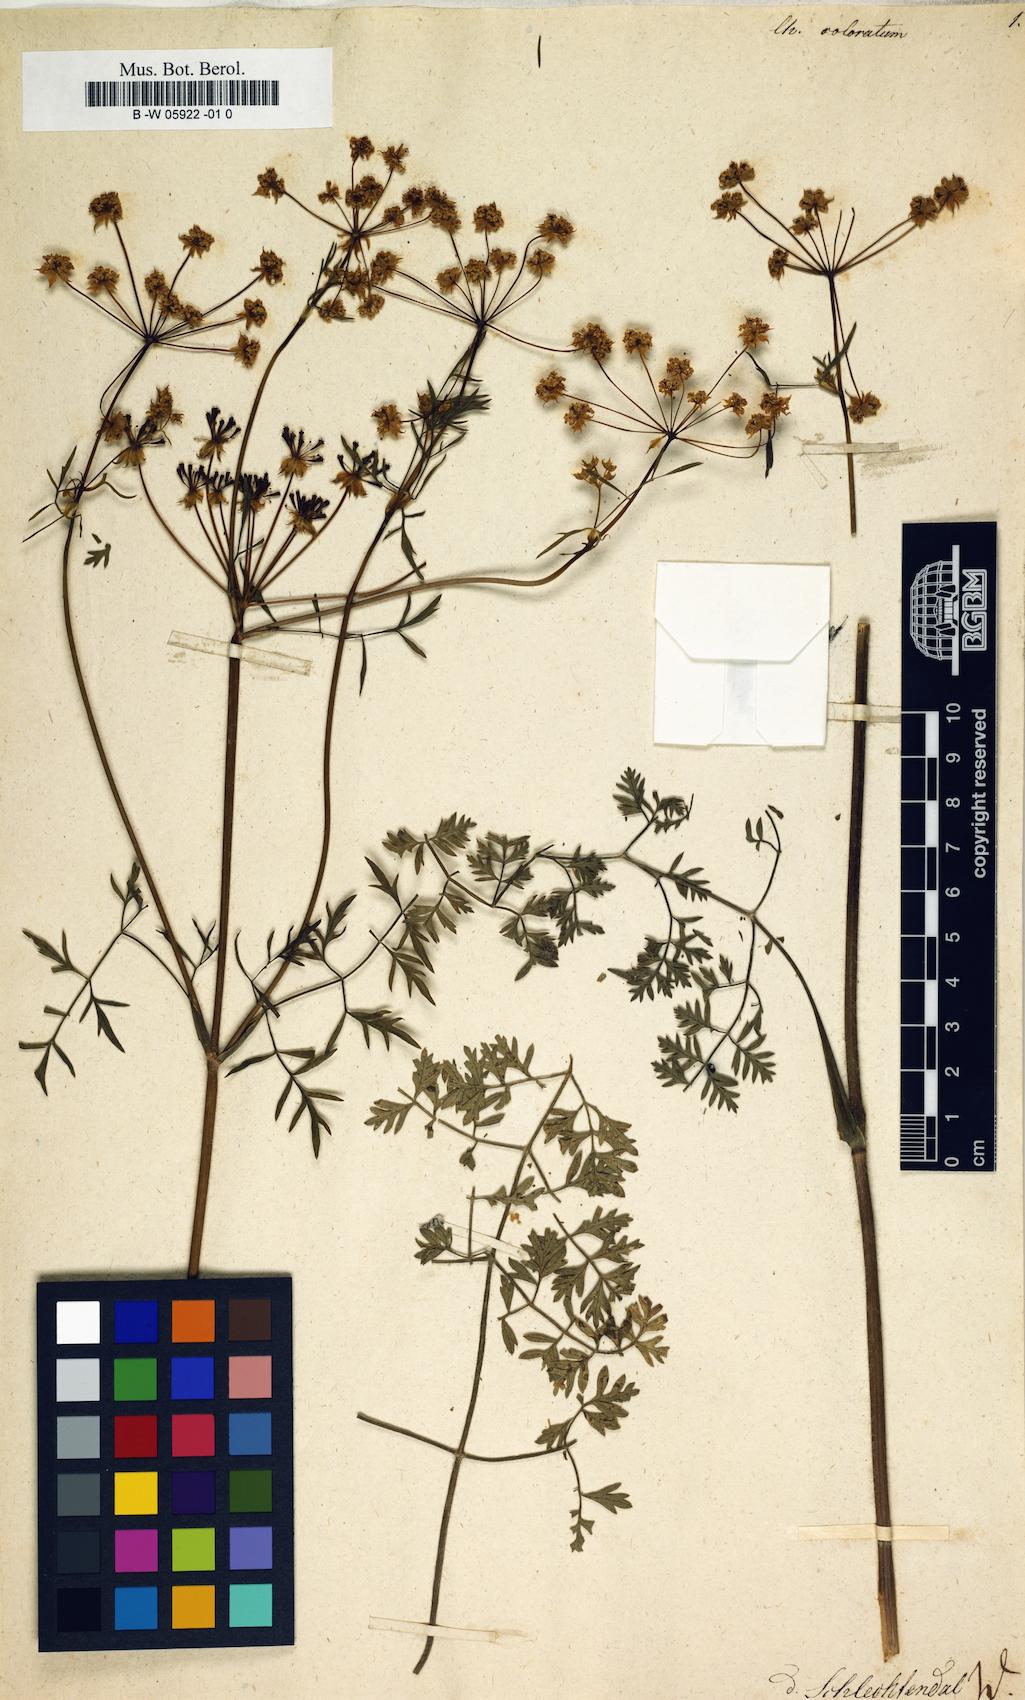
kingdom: Plantae
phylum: Tracheophyta
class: Magnoliopsida
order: Apiales
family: Apiaceae
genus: Chaerophyllum
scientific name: Chaerophyllum coloratum
